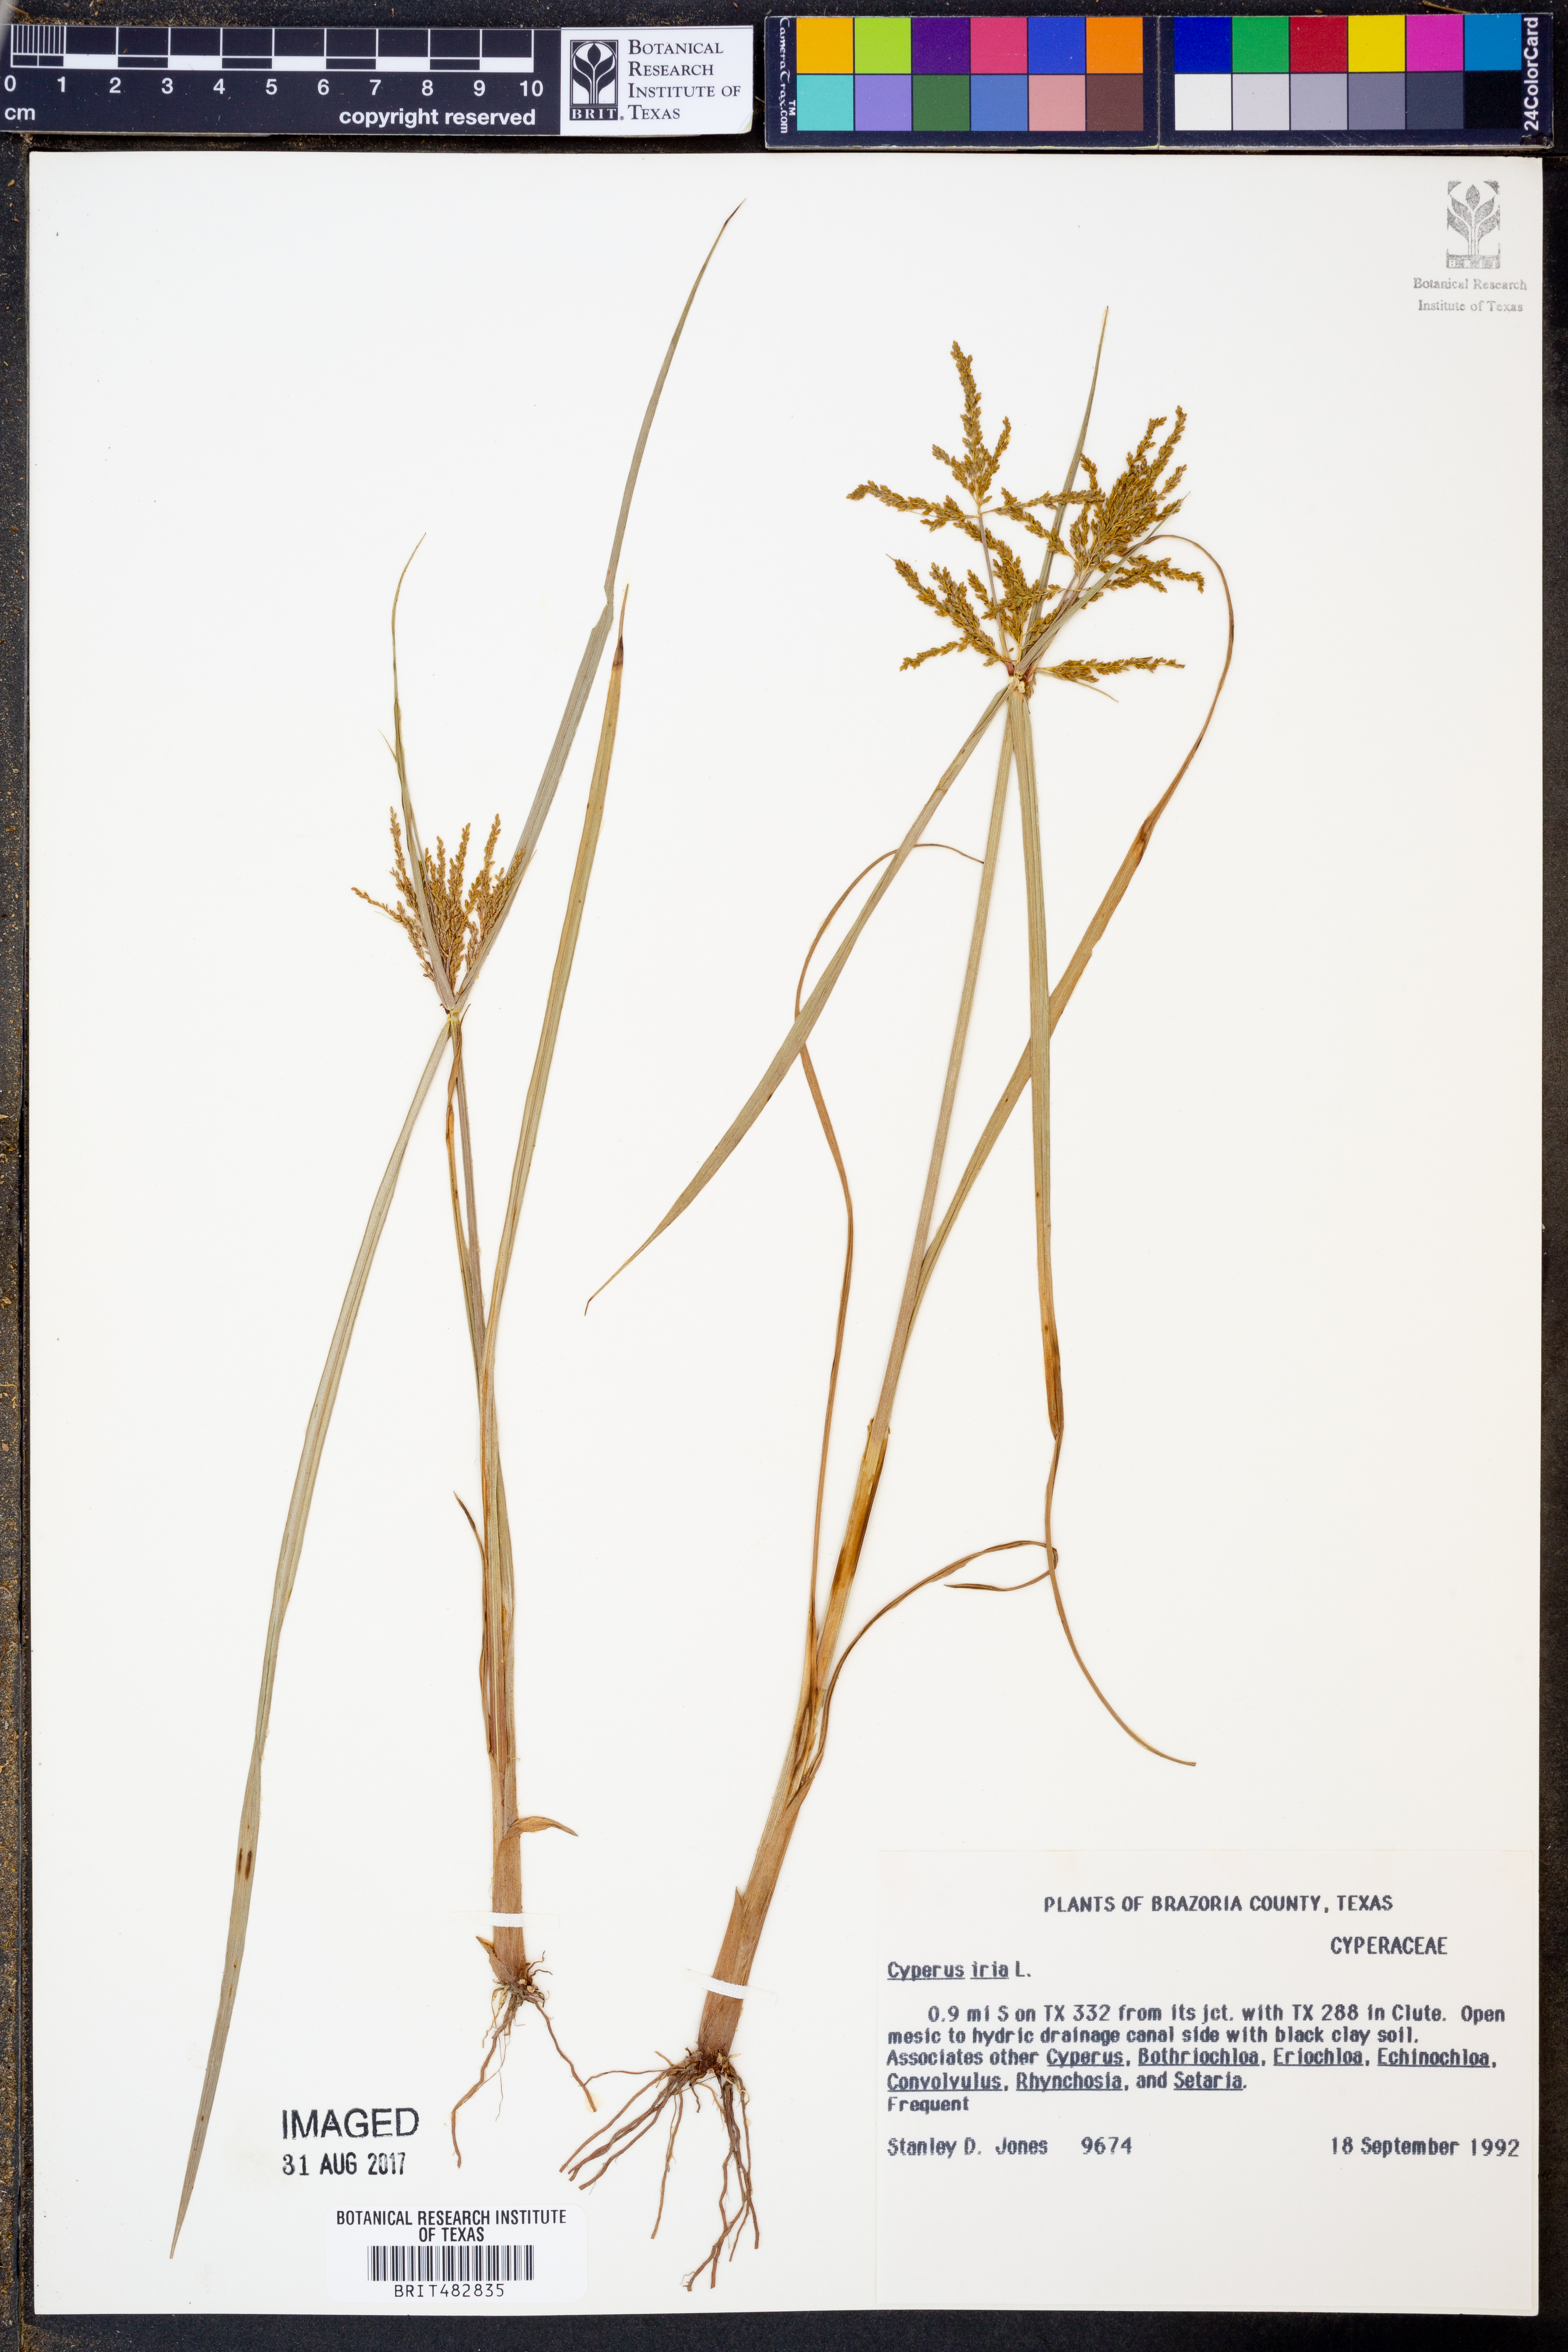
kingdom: Plantae
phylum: Tracheophyta
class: Liliopsida
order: Poales
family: Cyperaceae
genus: Cyperus
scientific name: Cyperus iria
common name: Ricefield flatsedge
